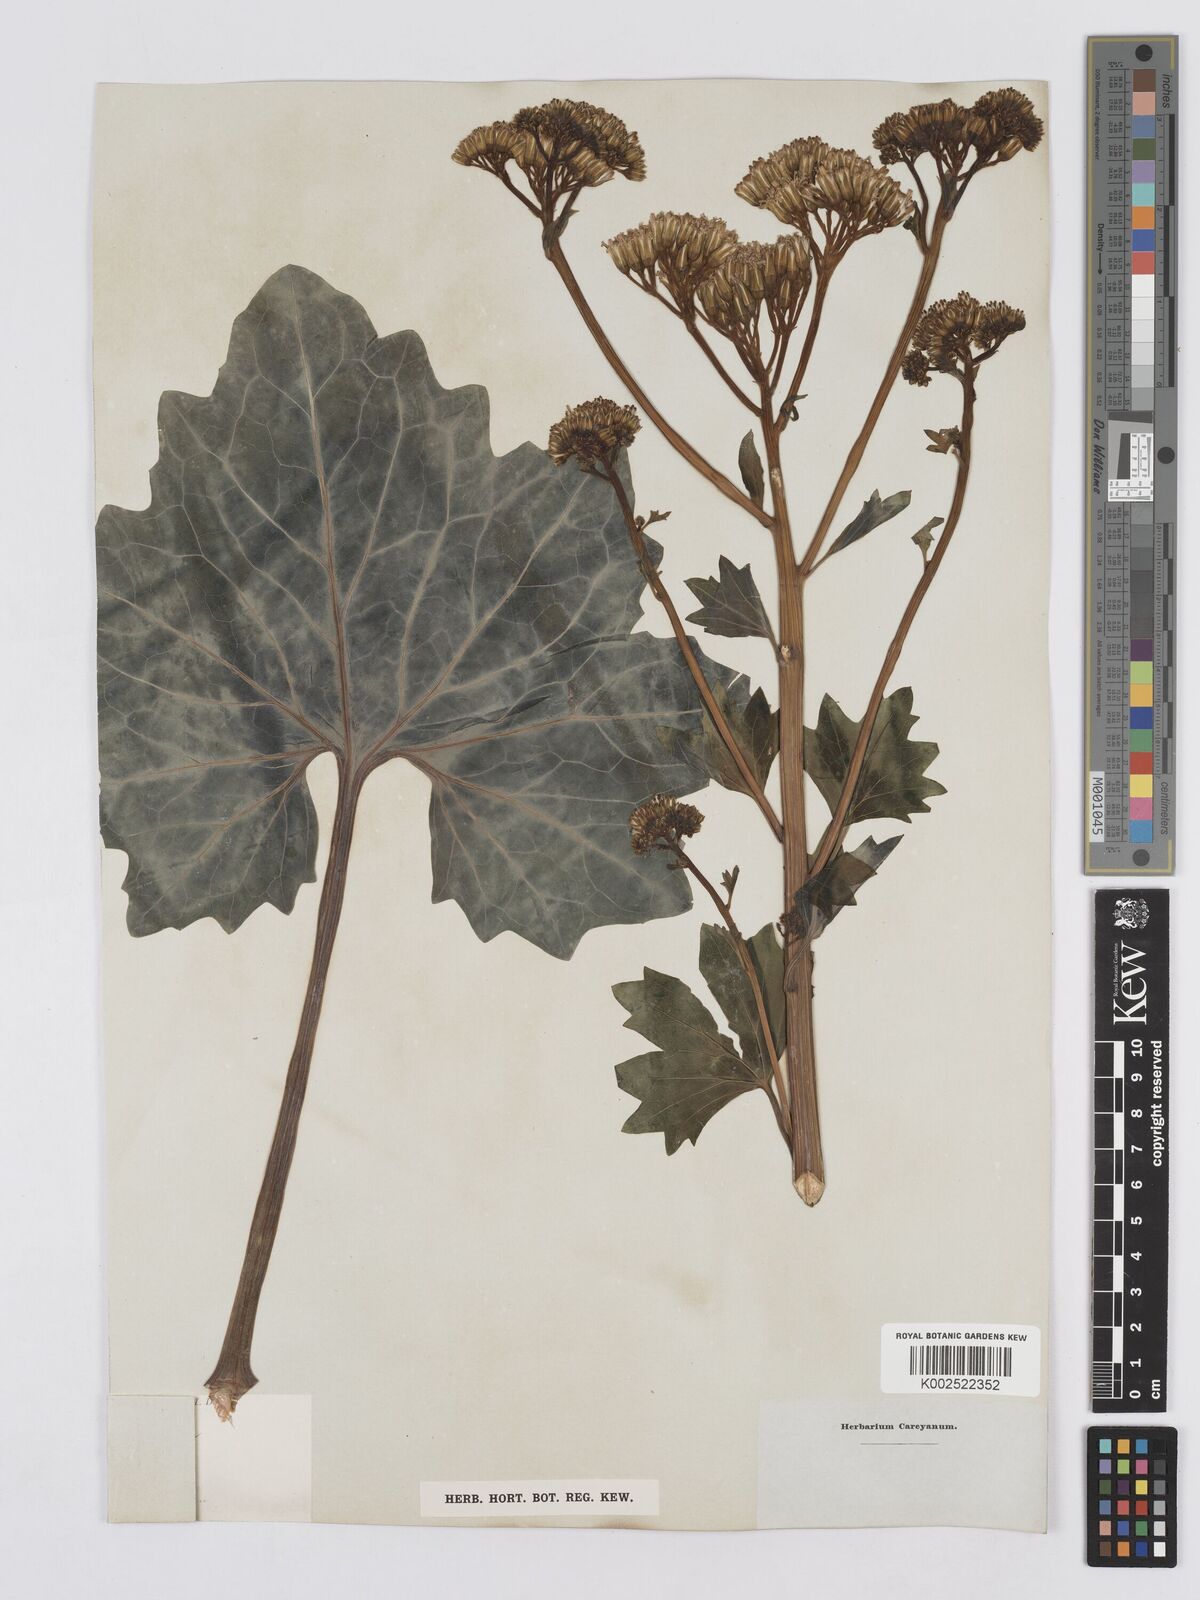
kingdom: Plantae
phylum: Tracheophyta
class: Magnoliopsida
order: Asterales
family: Asteraceae
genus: Arnoglossum
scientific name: Arnoglossum atriplicifolium
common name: Pale indian-plantain
